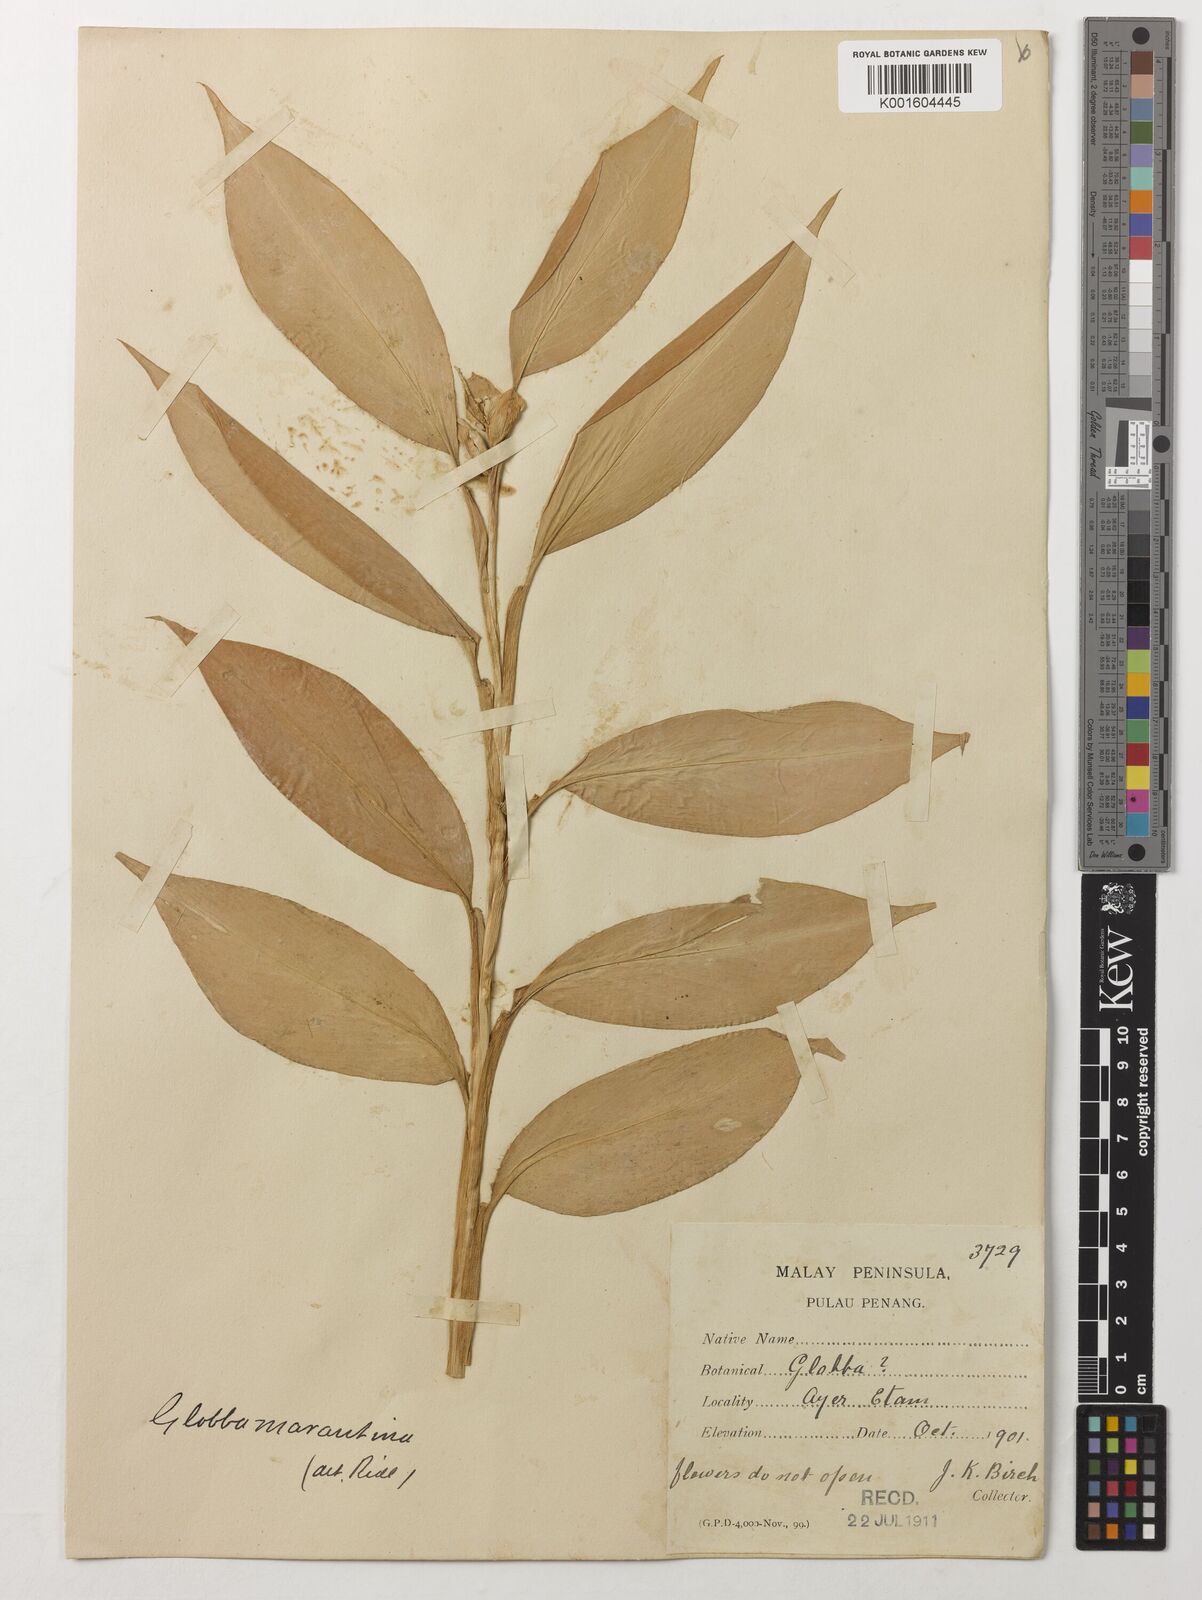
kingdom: Plantae
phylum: Tracheophyta
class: Liliopsida
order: Zingiberales
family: Zingiberaceae
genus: Globba
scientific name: Globba marantina
